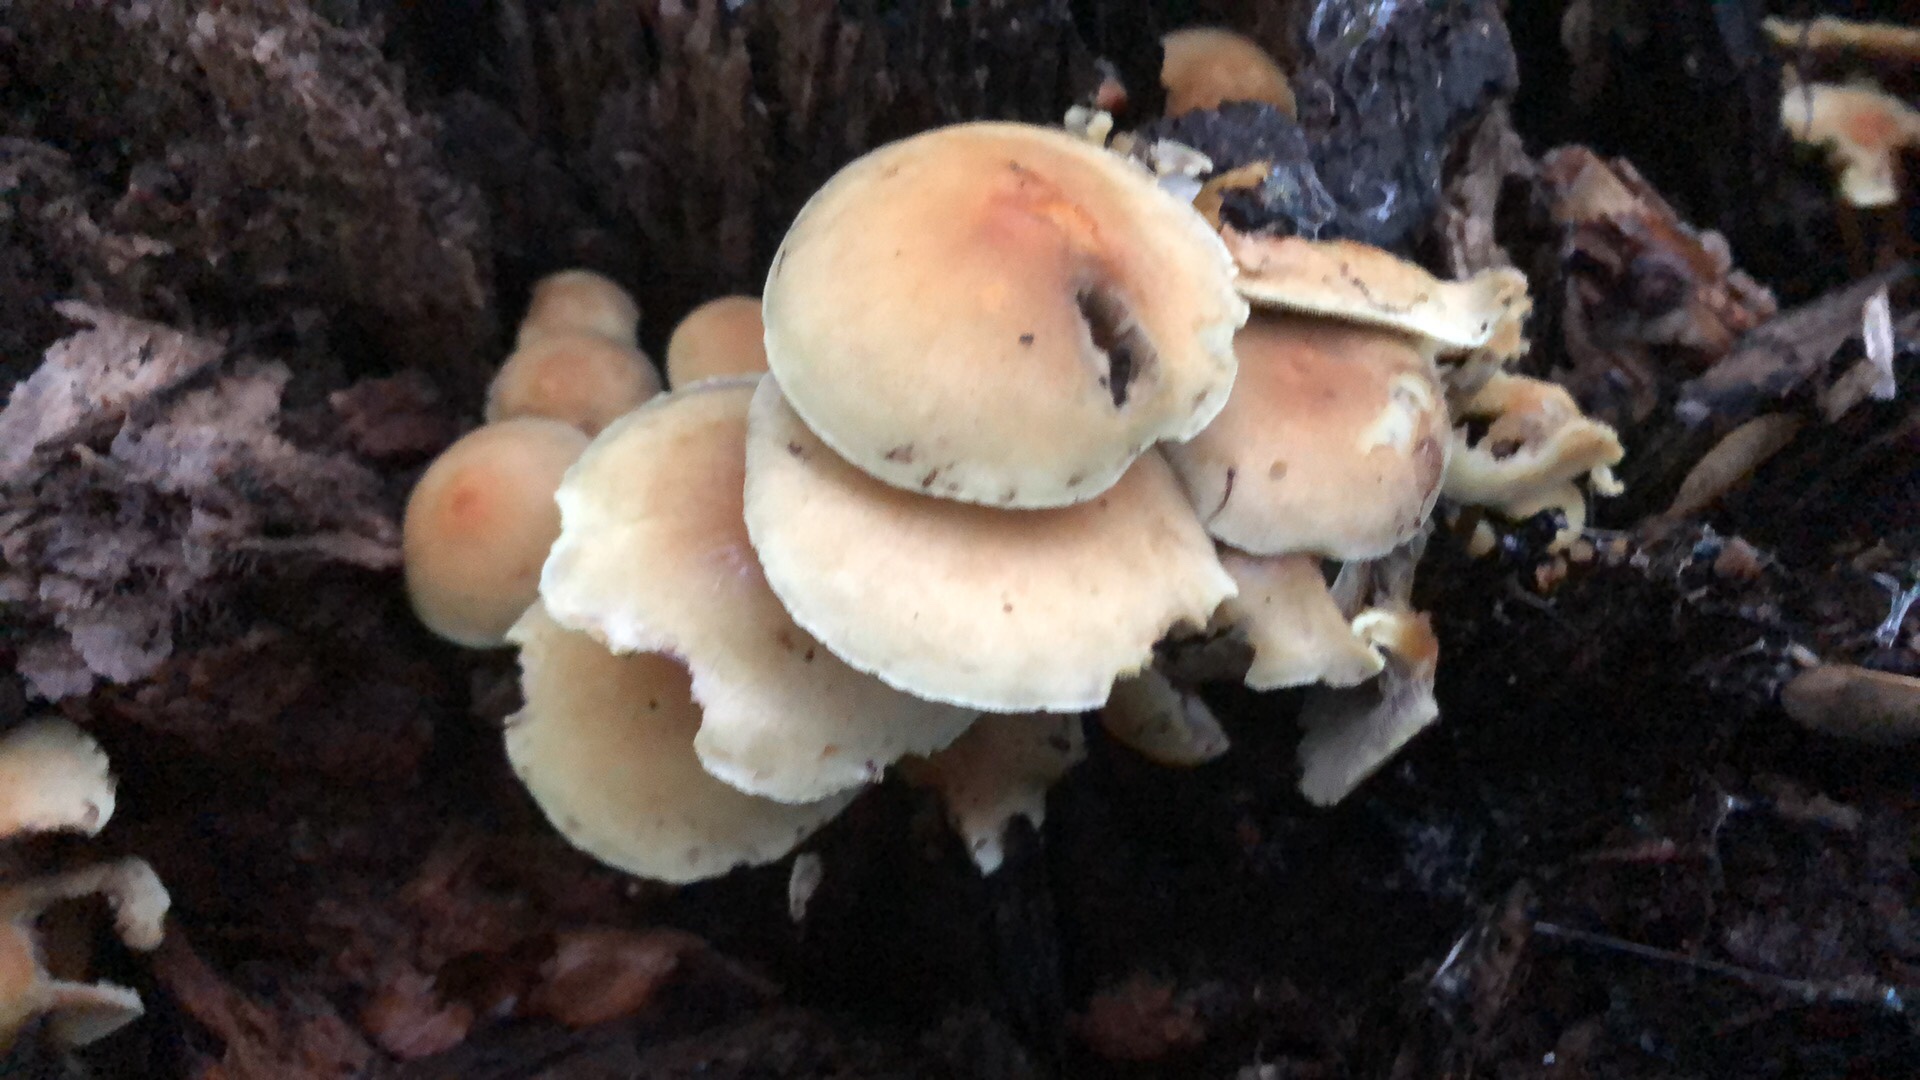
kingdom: Fungi
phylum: Basidiomycota
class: Agaricomycetes
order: Agaricales
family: Strophariaceae
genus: Hypholoma
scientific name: Hypholoma fasciculare
